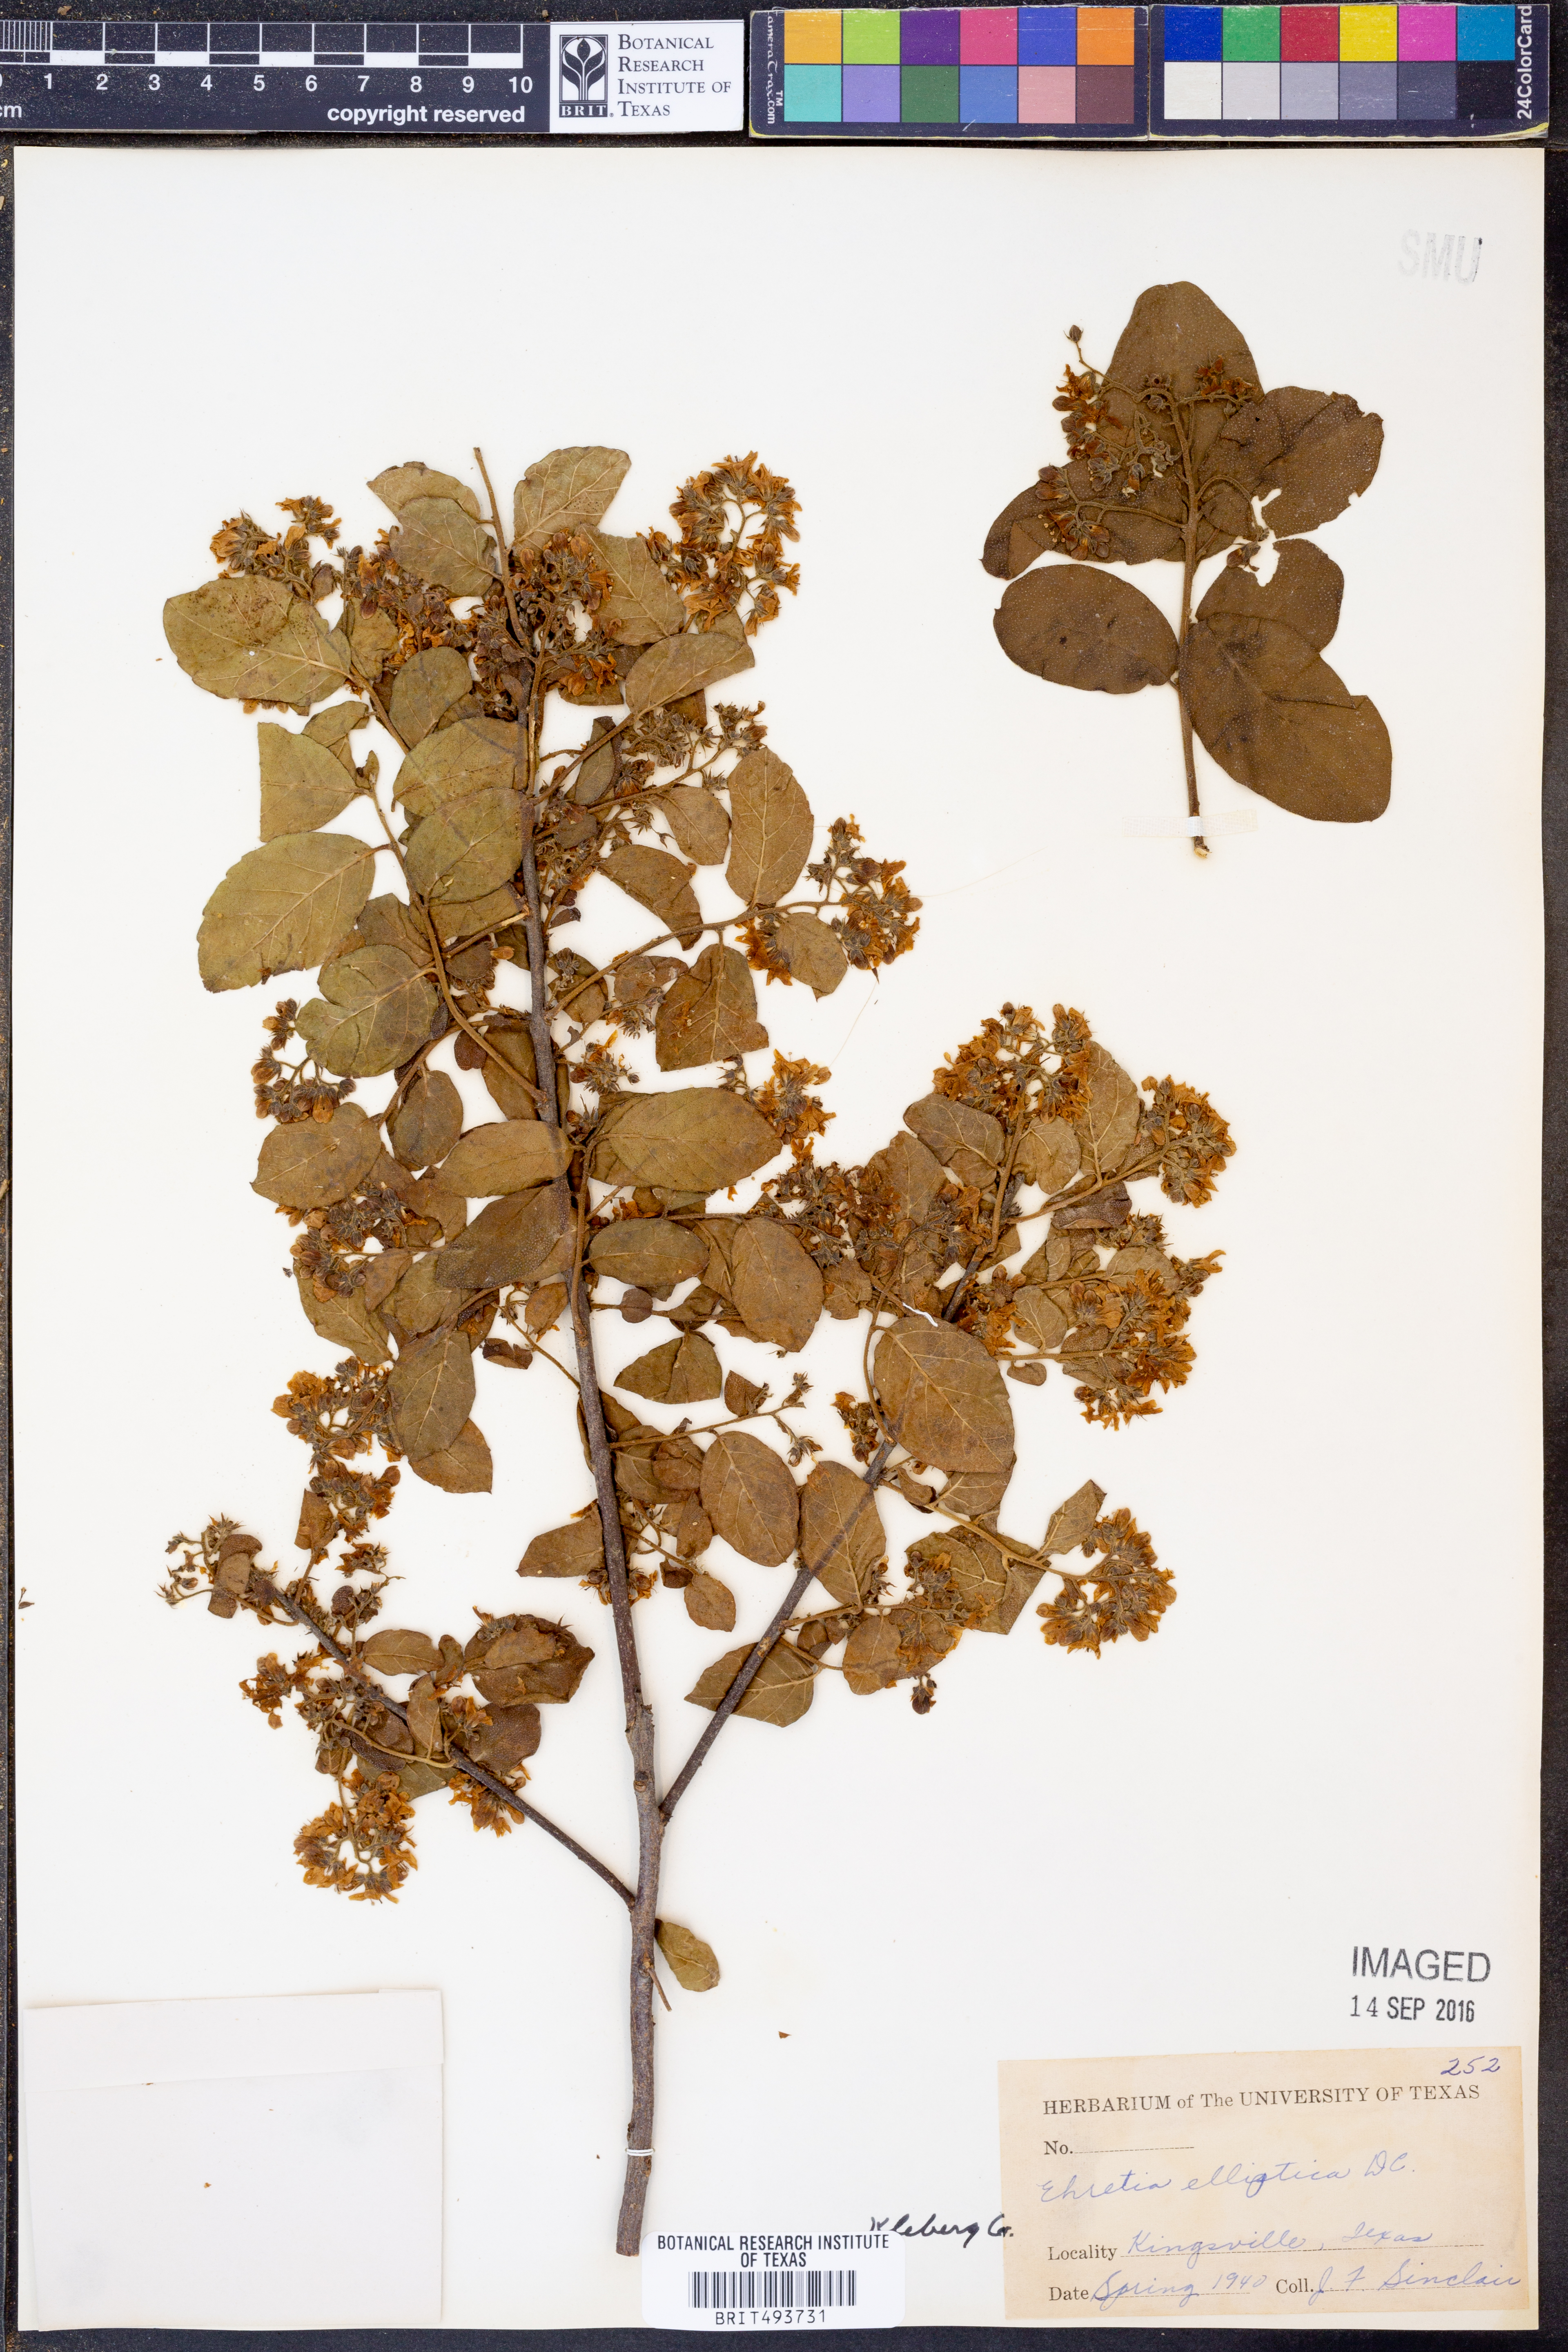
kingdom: Plantae
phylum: Tracheophyta
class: Magnoliopsida
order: Boraginales
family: Ehretiaceae
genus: Ehretia
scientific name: Ehretia anacua
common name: Sugarberry
